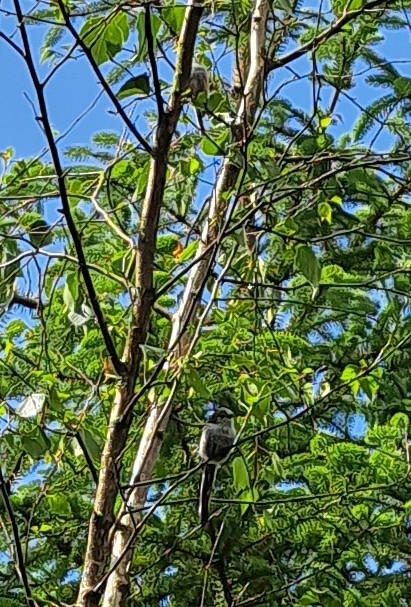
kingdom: Animalia
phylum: Chordata
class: Aves
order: Passeriformes
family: Aegithalidae
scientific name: Aegithalidae
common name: Halemejser
